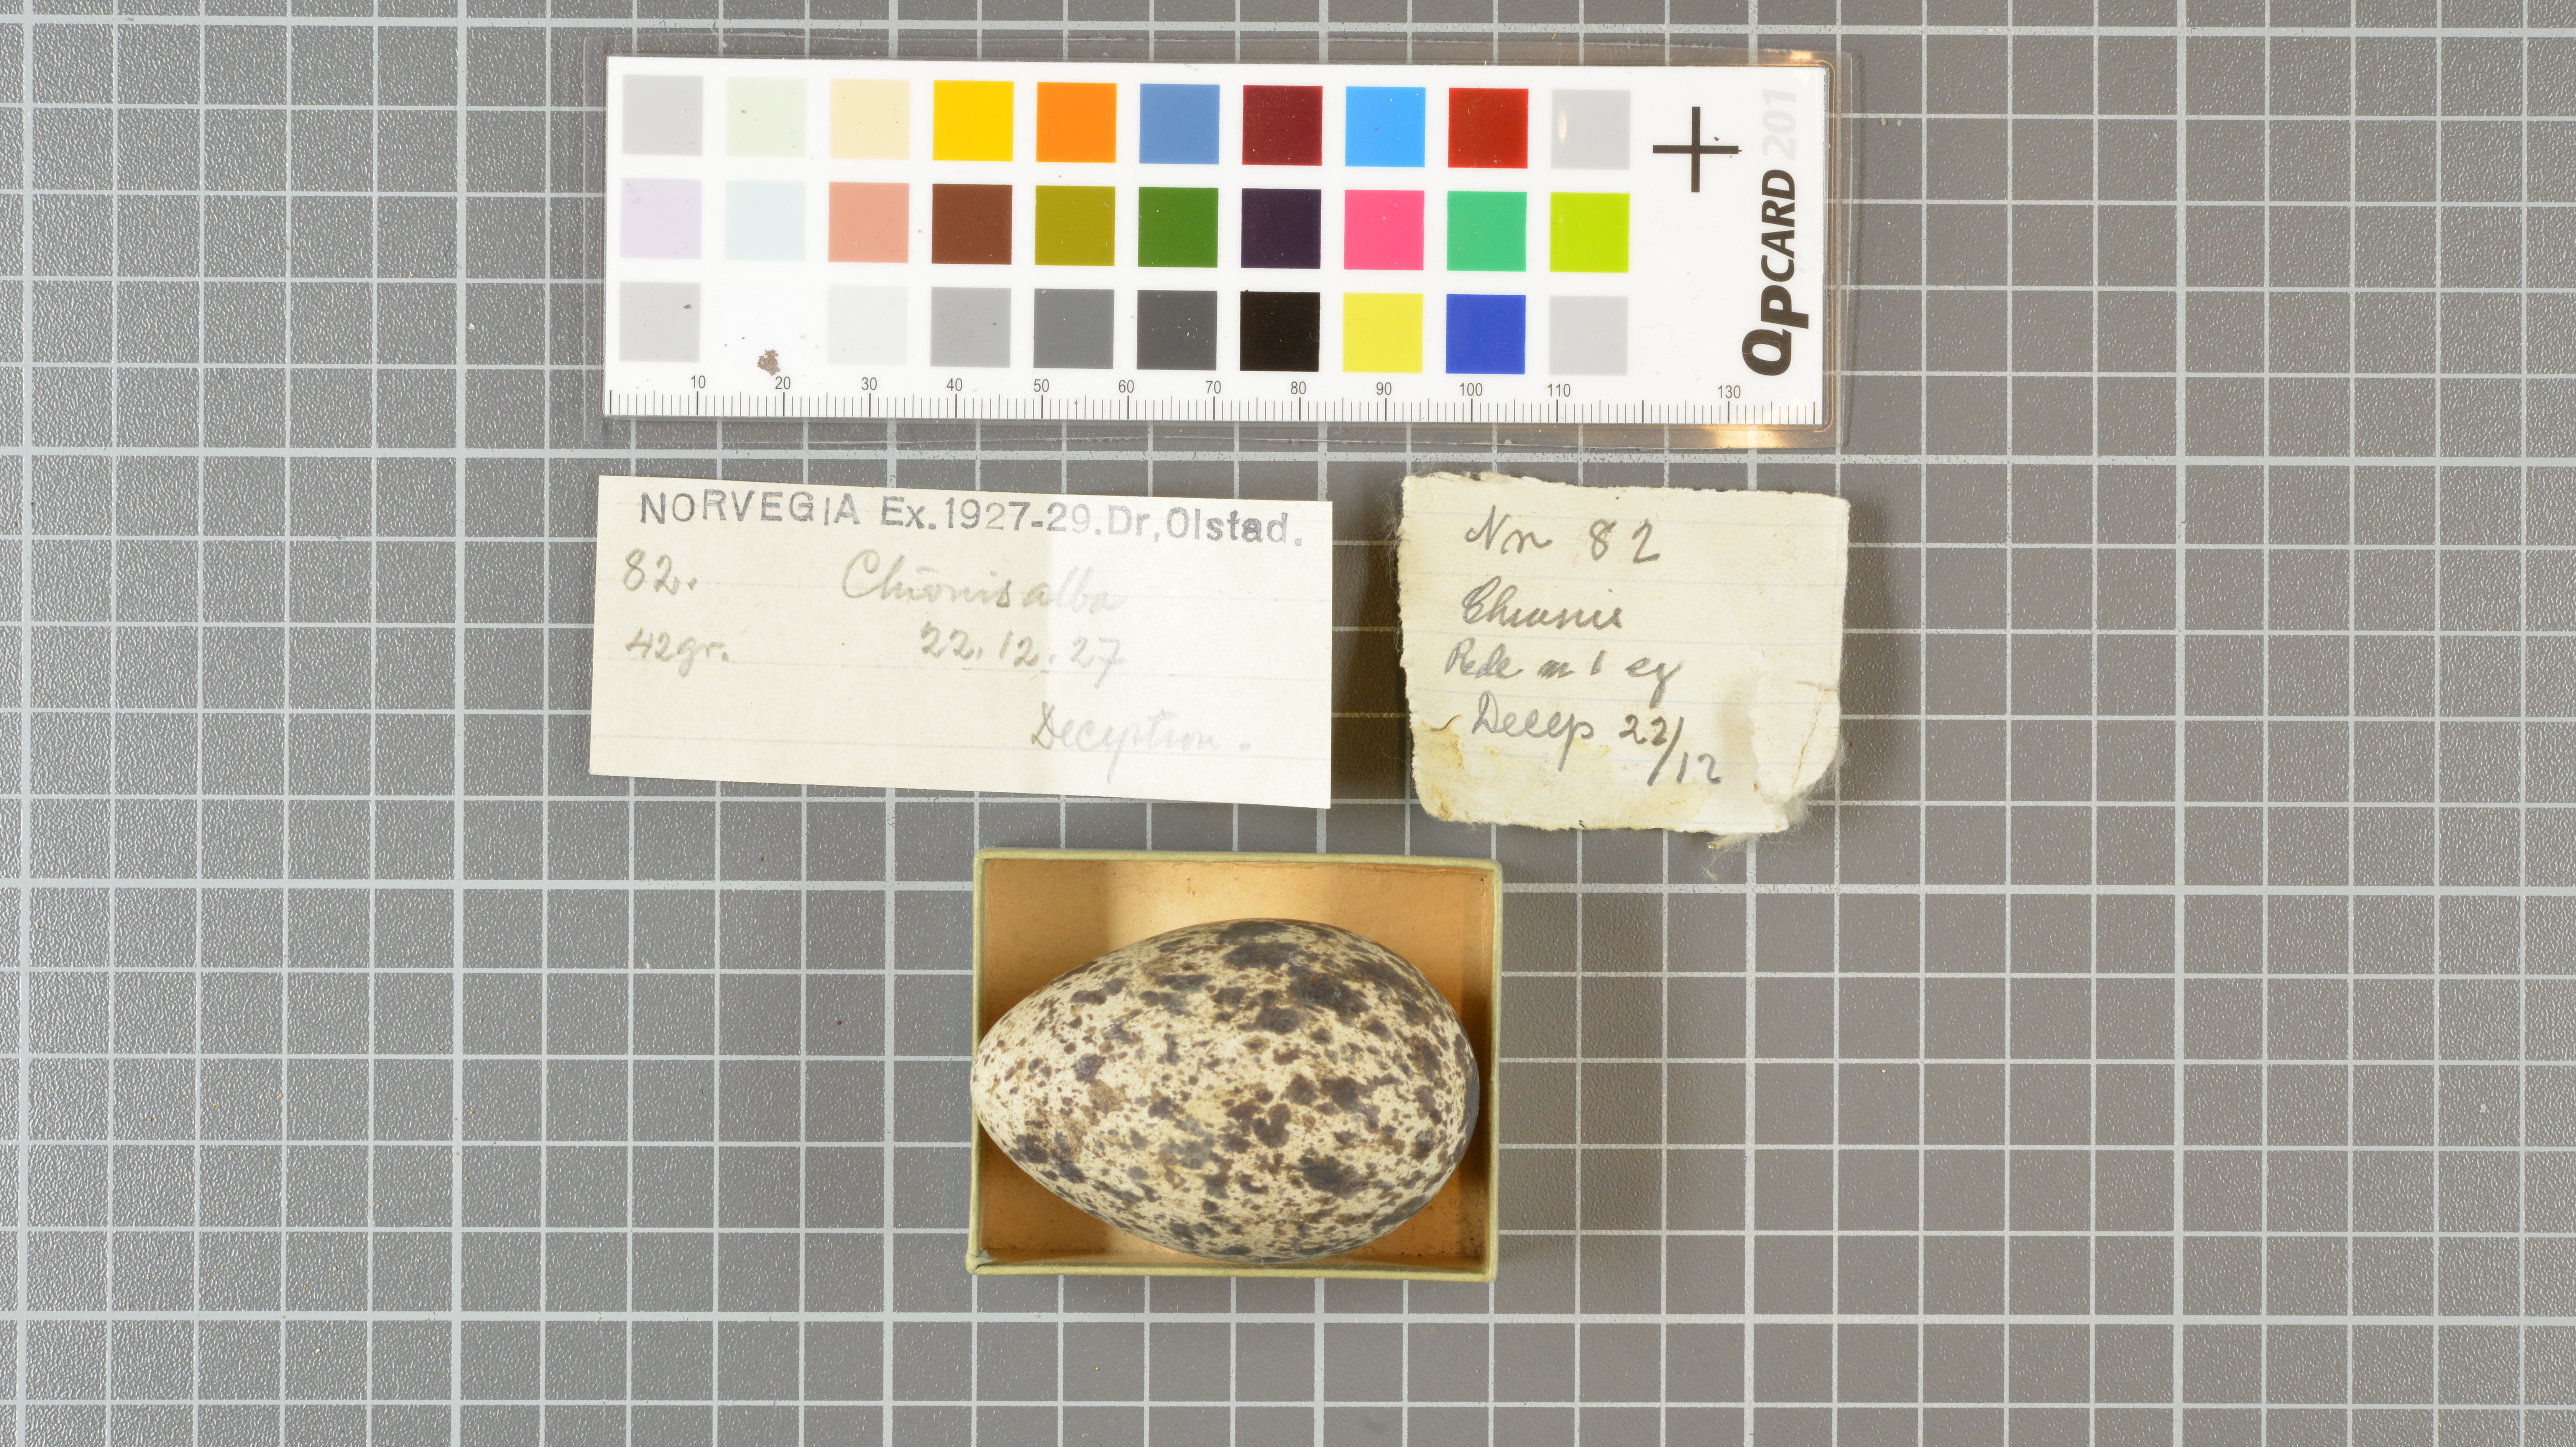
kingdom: Animalia
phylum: Chordata
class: Aves
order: Charadriiformes
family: Chionidae
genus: Chionis
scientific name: Chionis albus
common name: Snowy sheathbill
